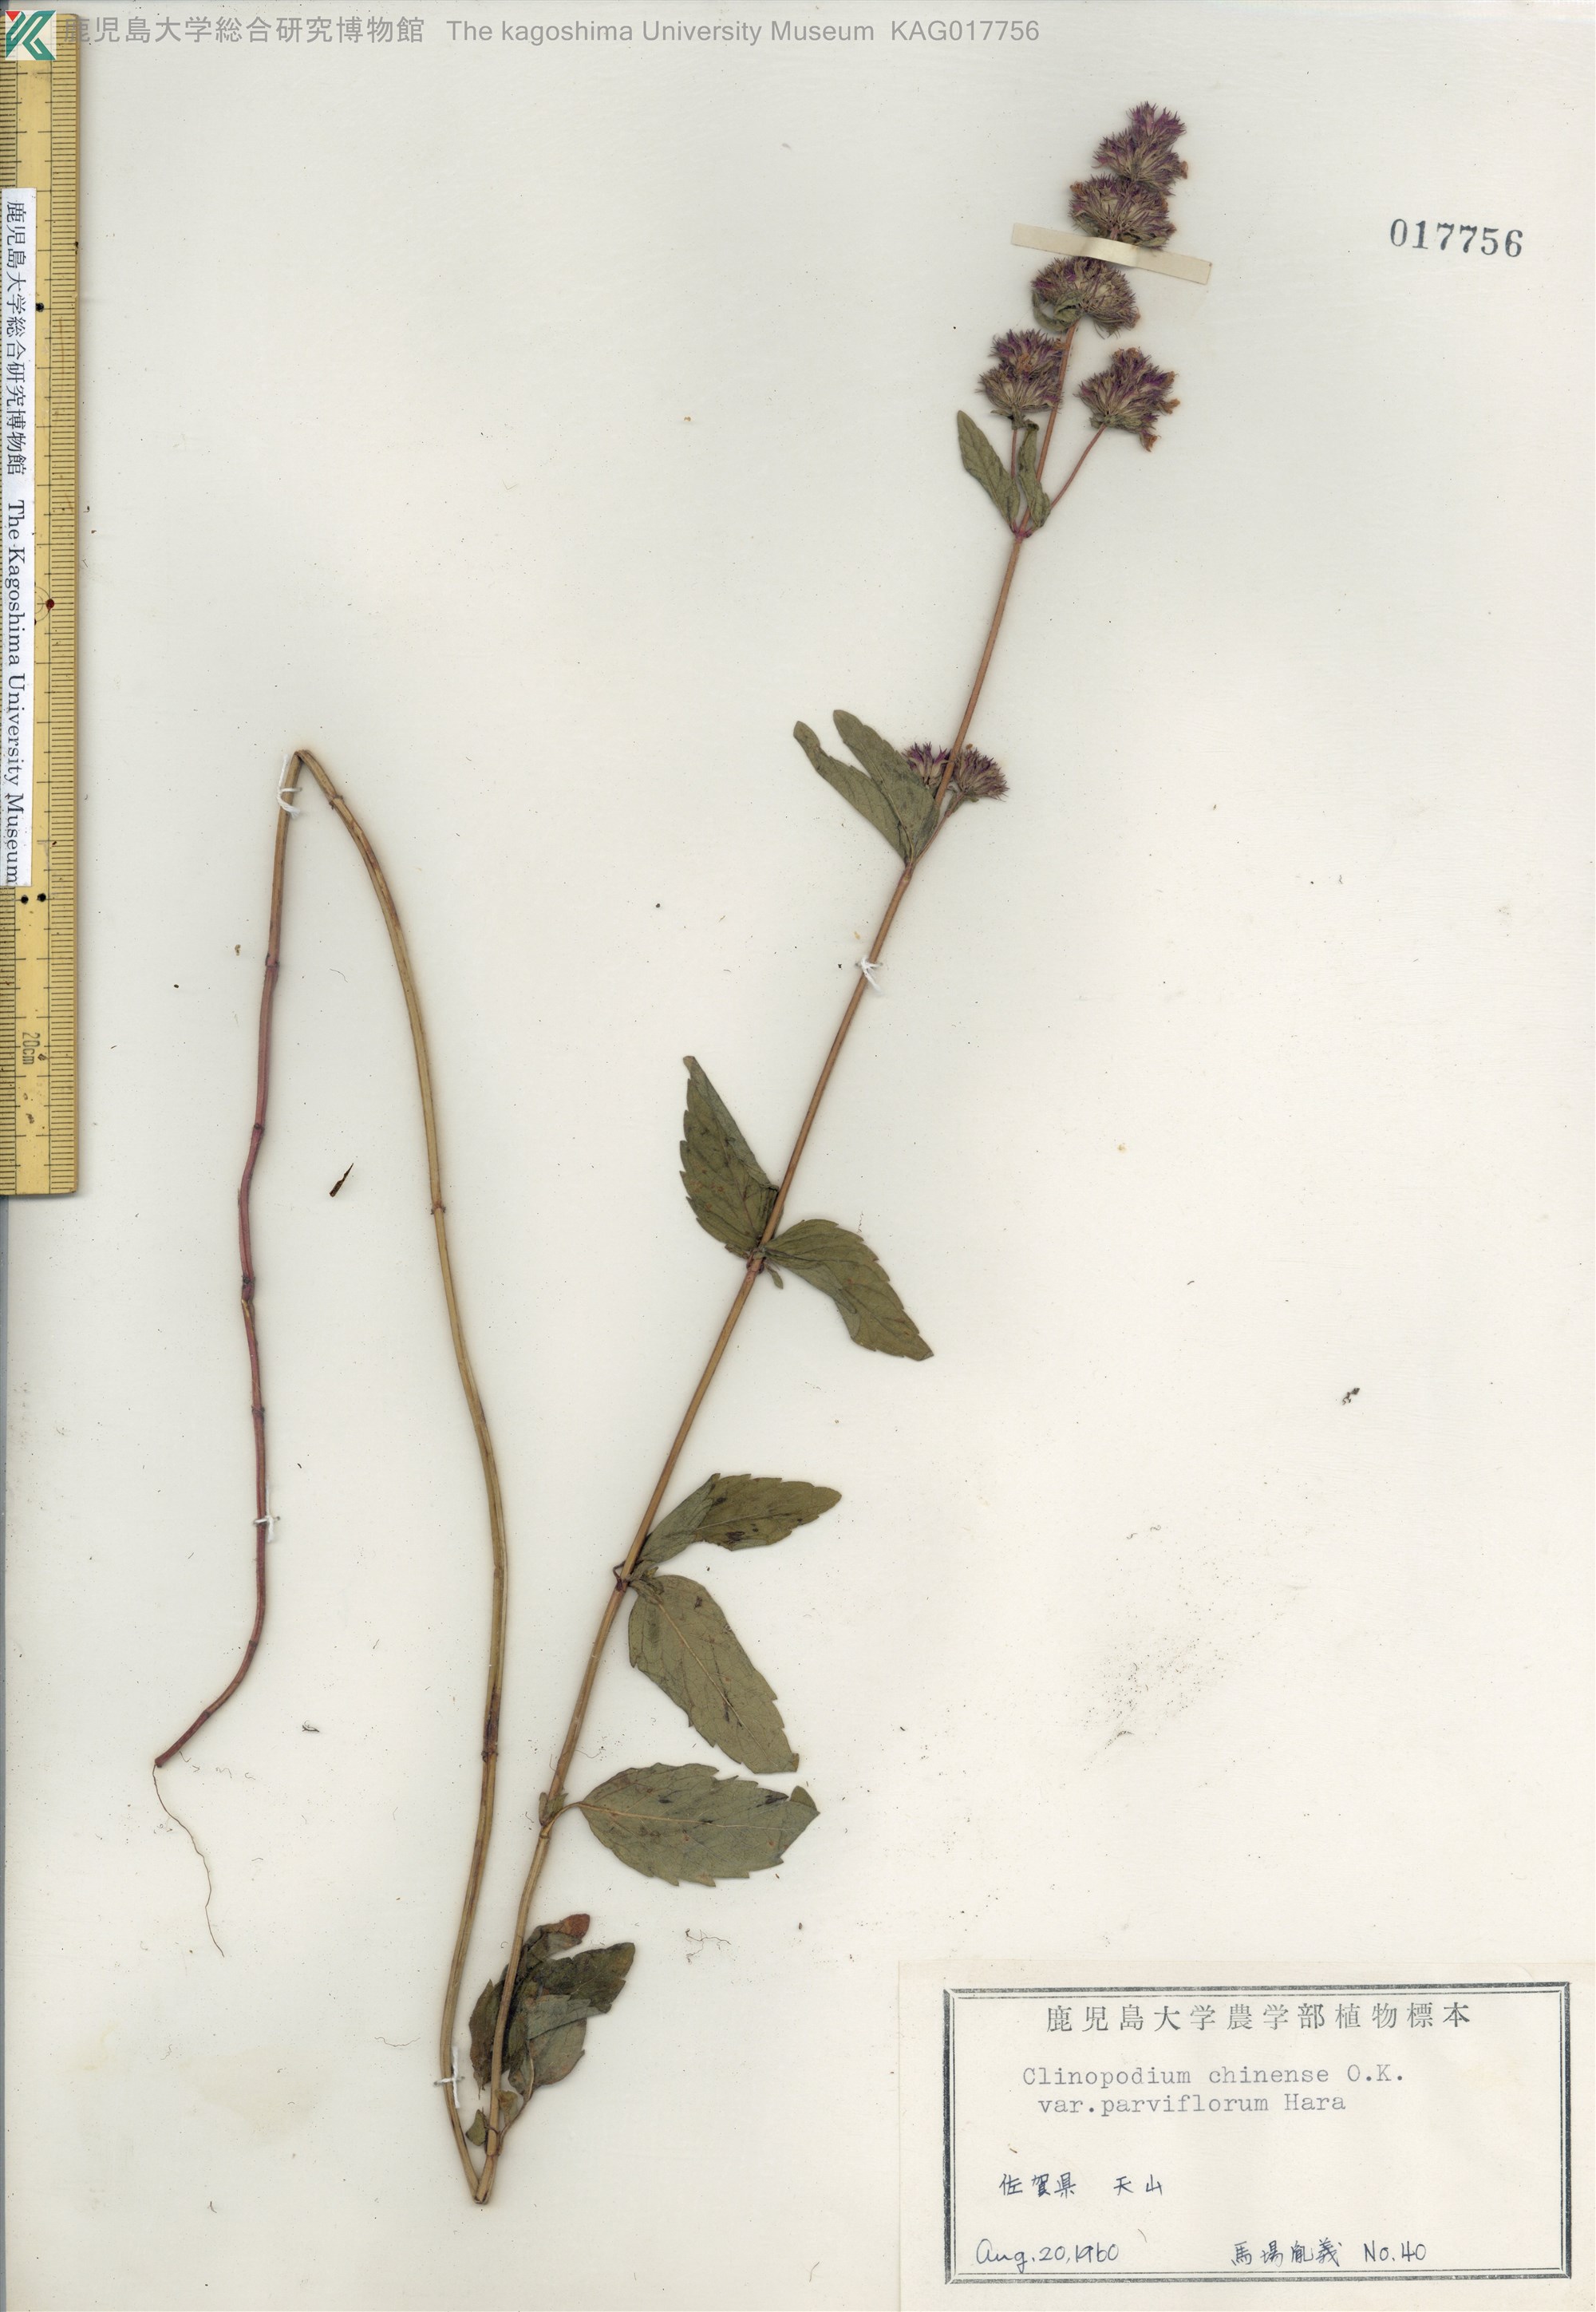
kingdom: Plantae
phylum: Tracheophyta
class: Magnoliopsida
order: Lamiales
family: Lamiaceae
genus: Clinopodium
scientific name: Clinopodium chinense
